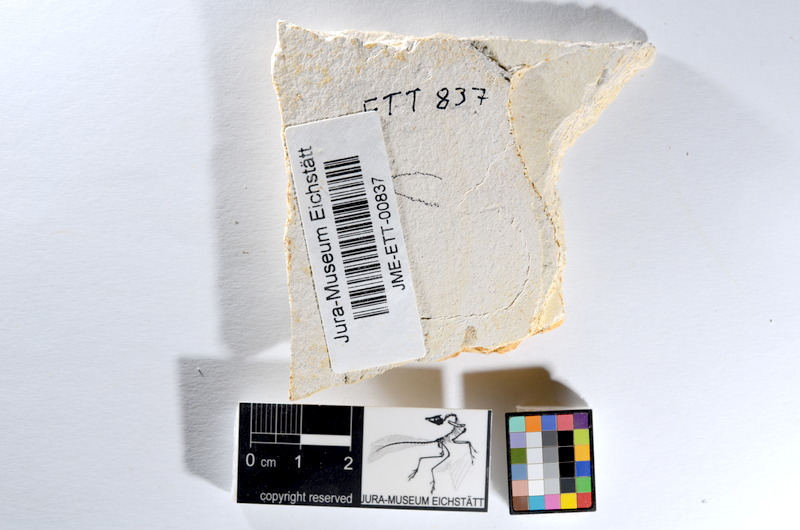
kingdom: Animalia
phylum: Chordata
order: Salmoniformes
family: Orthogonikleithridae
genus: Orthogonikleithrus
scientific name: Orthogonikleithrus hoelli
